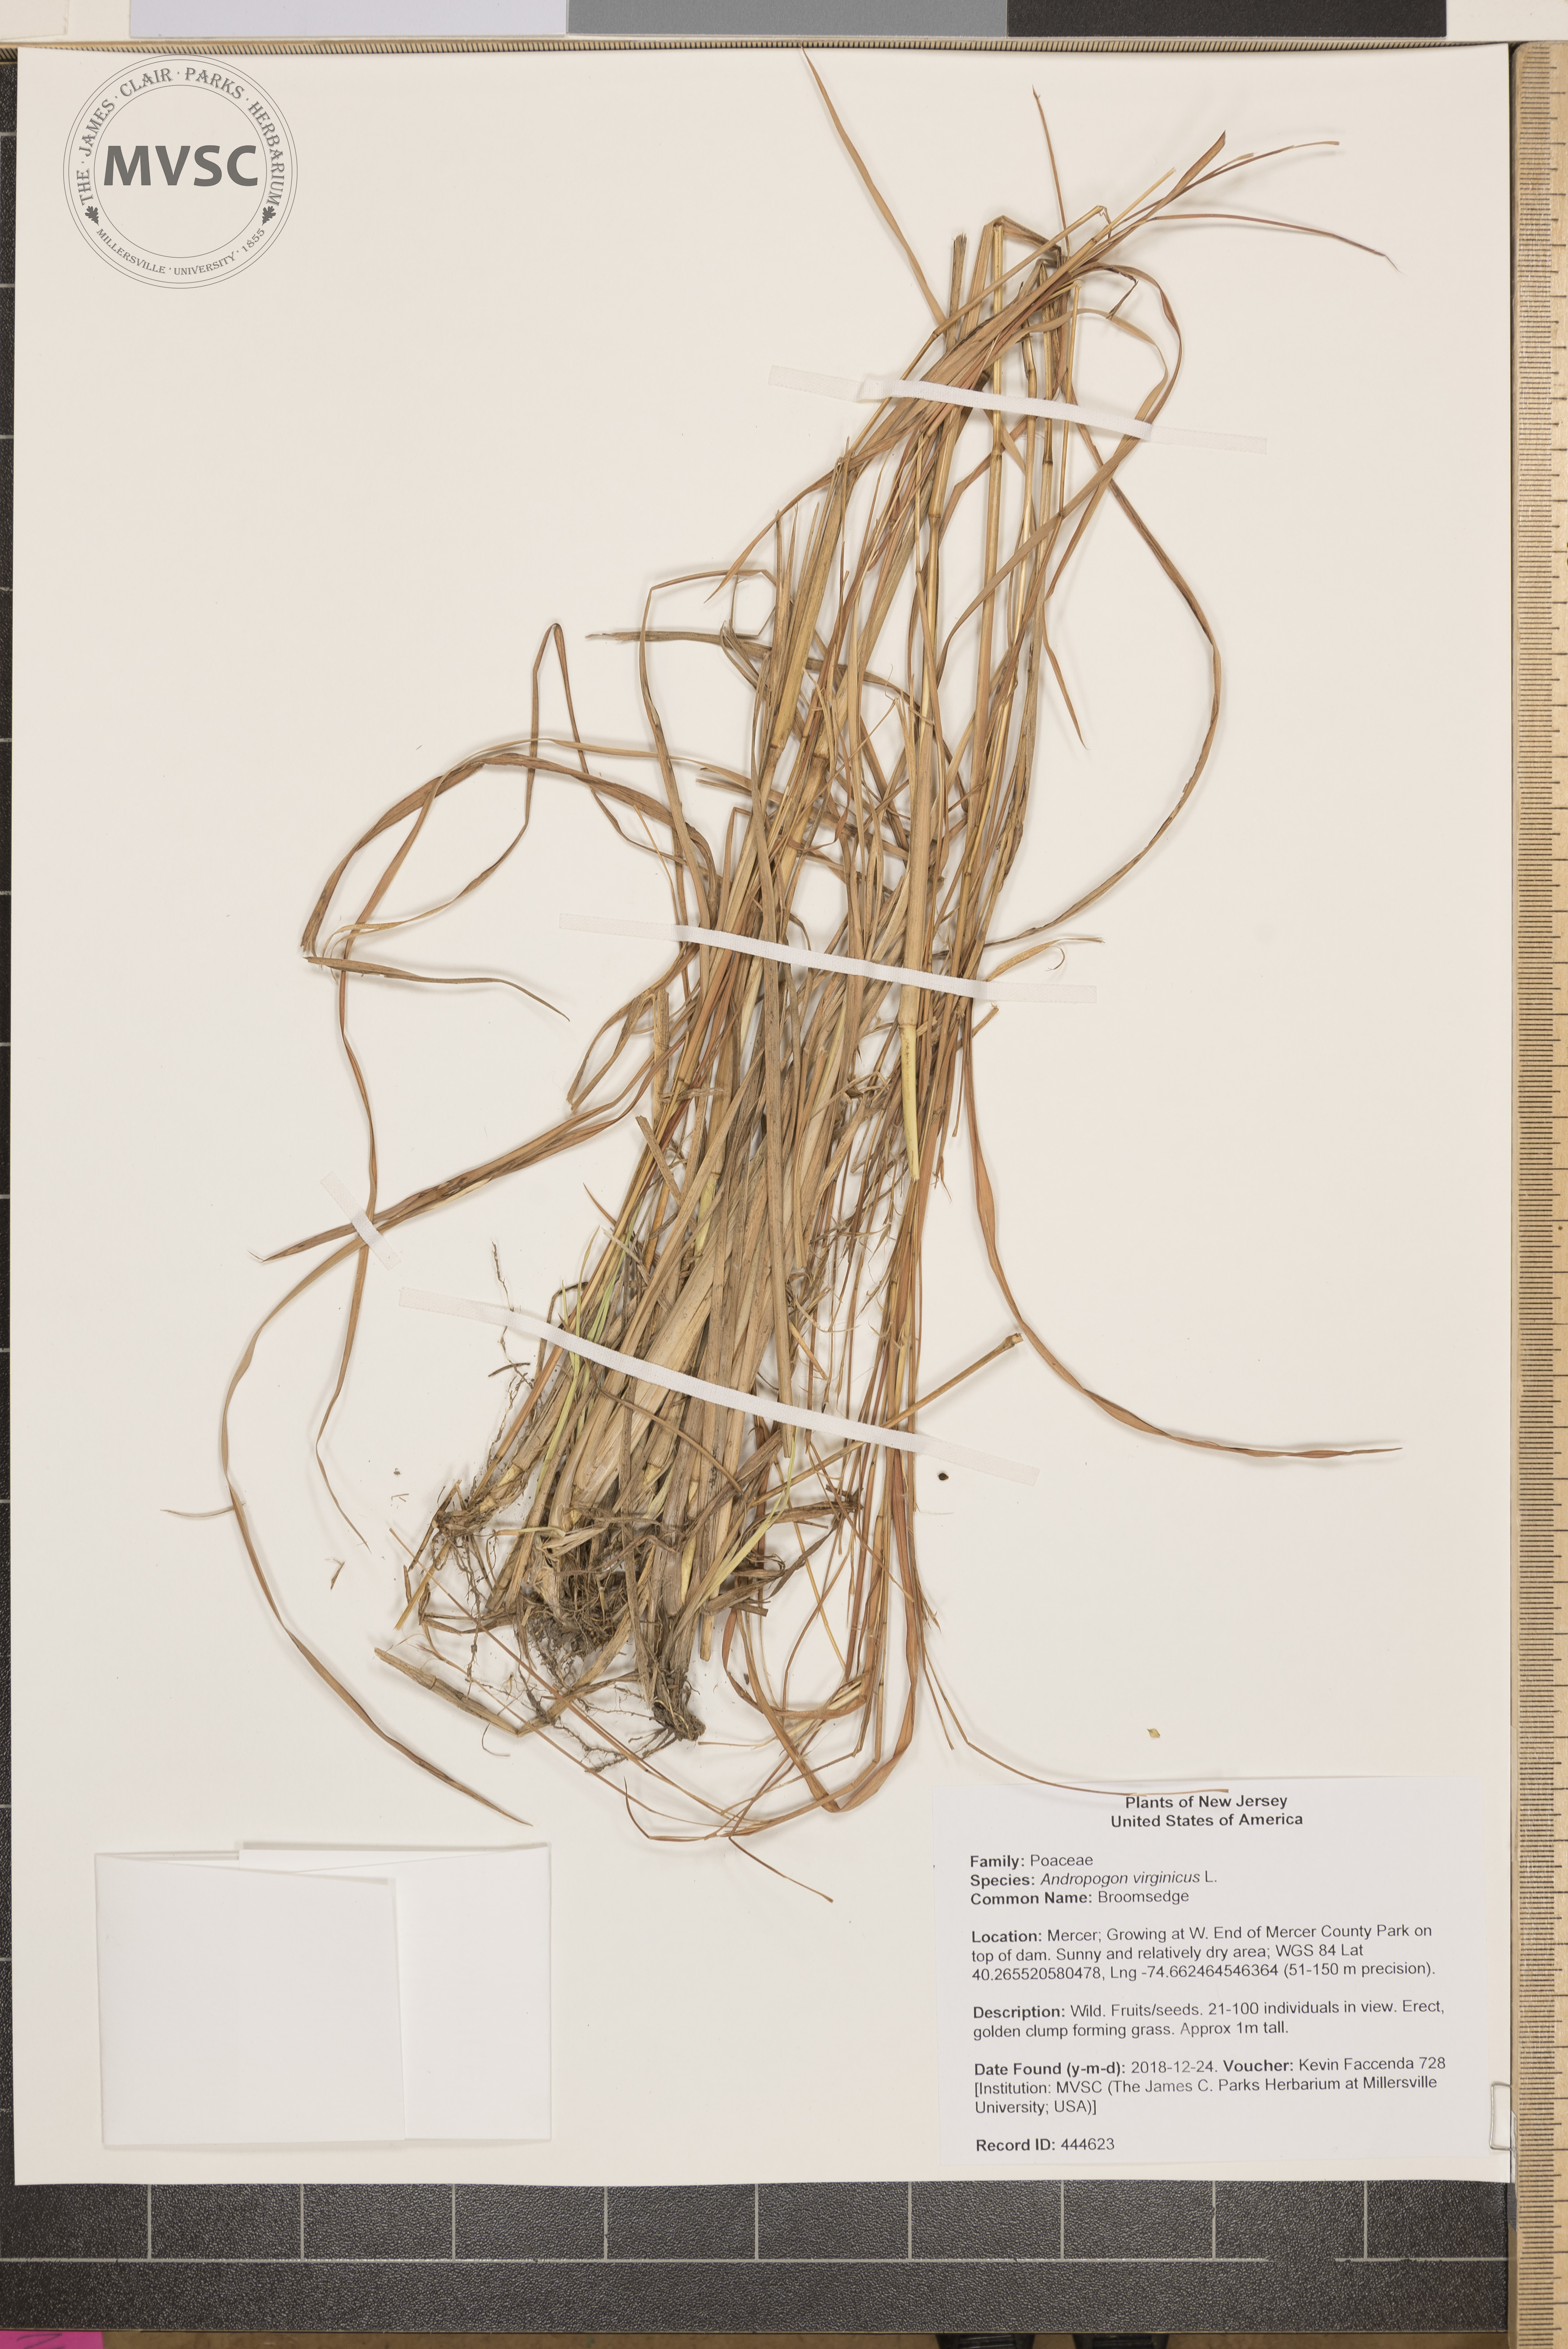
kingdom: Plantae
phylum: Tracheophyta
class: Liliopsida
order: Poales
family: Poaceae
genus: Andropogon
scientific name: Andropogon virginicus
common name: Broomsedge
